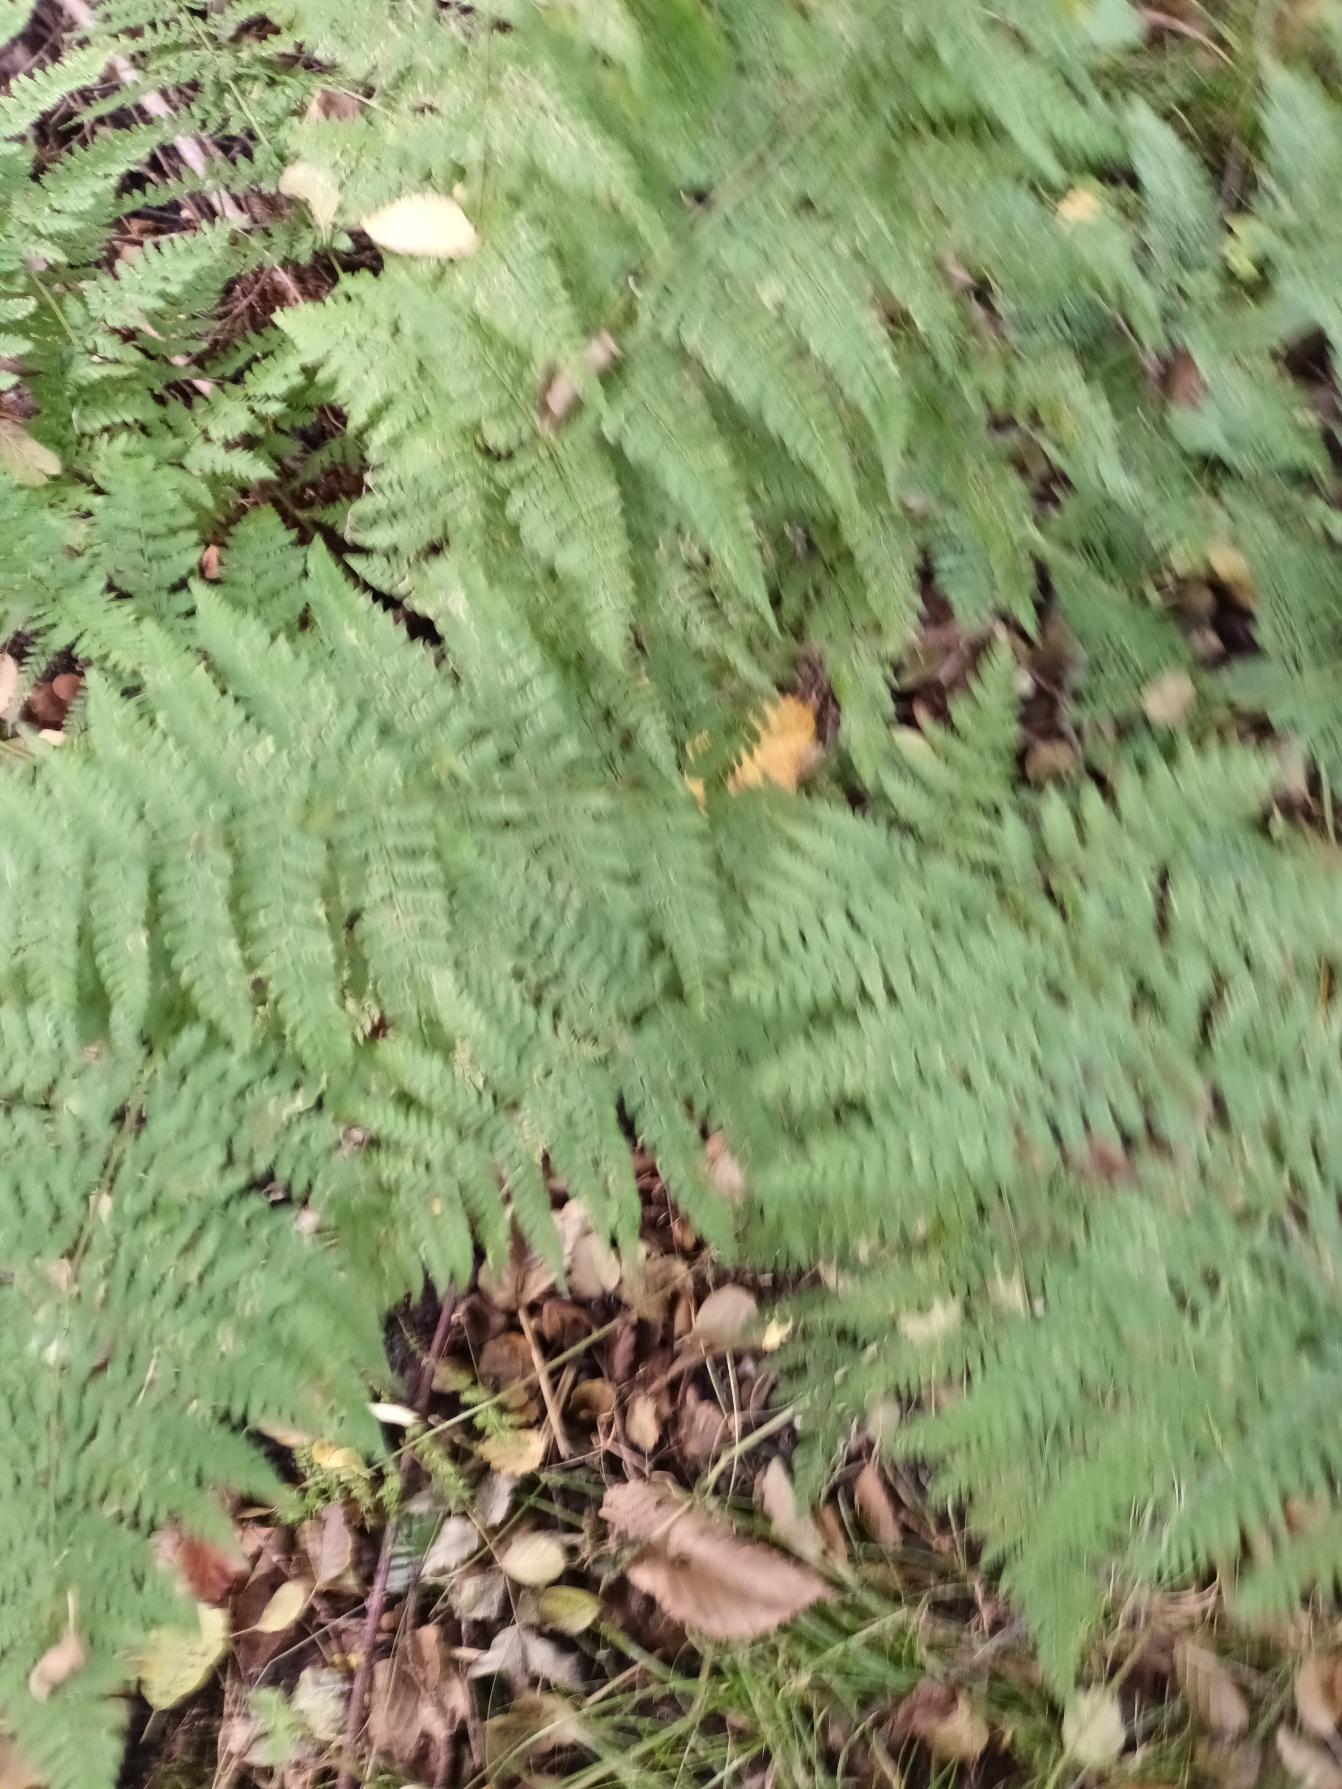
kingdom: Plantae
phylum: Tracheophyta
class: Polypodiopsida
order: Polypodiales
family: Dryopteridaceae
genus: Dryopteris
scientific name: Dryopteris dilatata
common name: Bredbladet mangeløv
